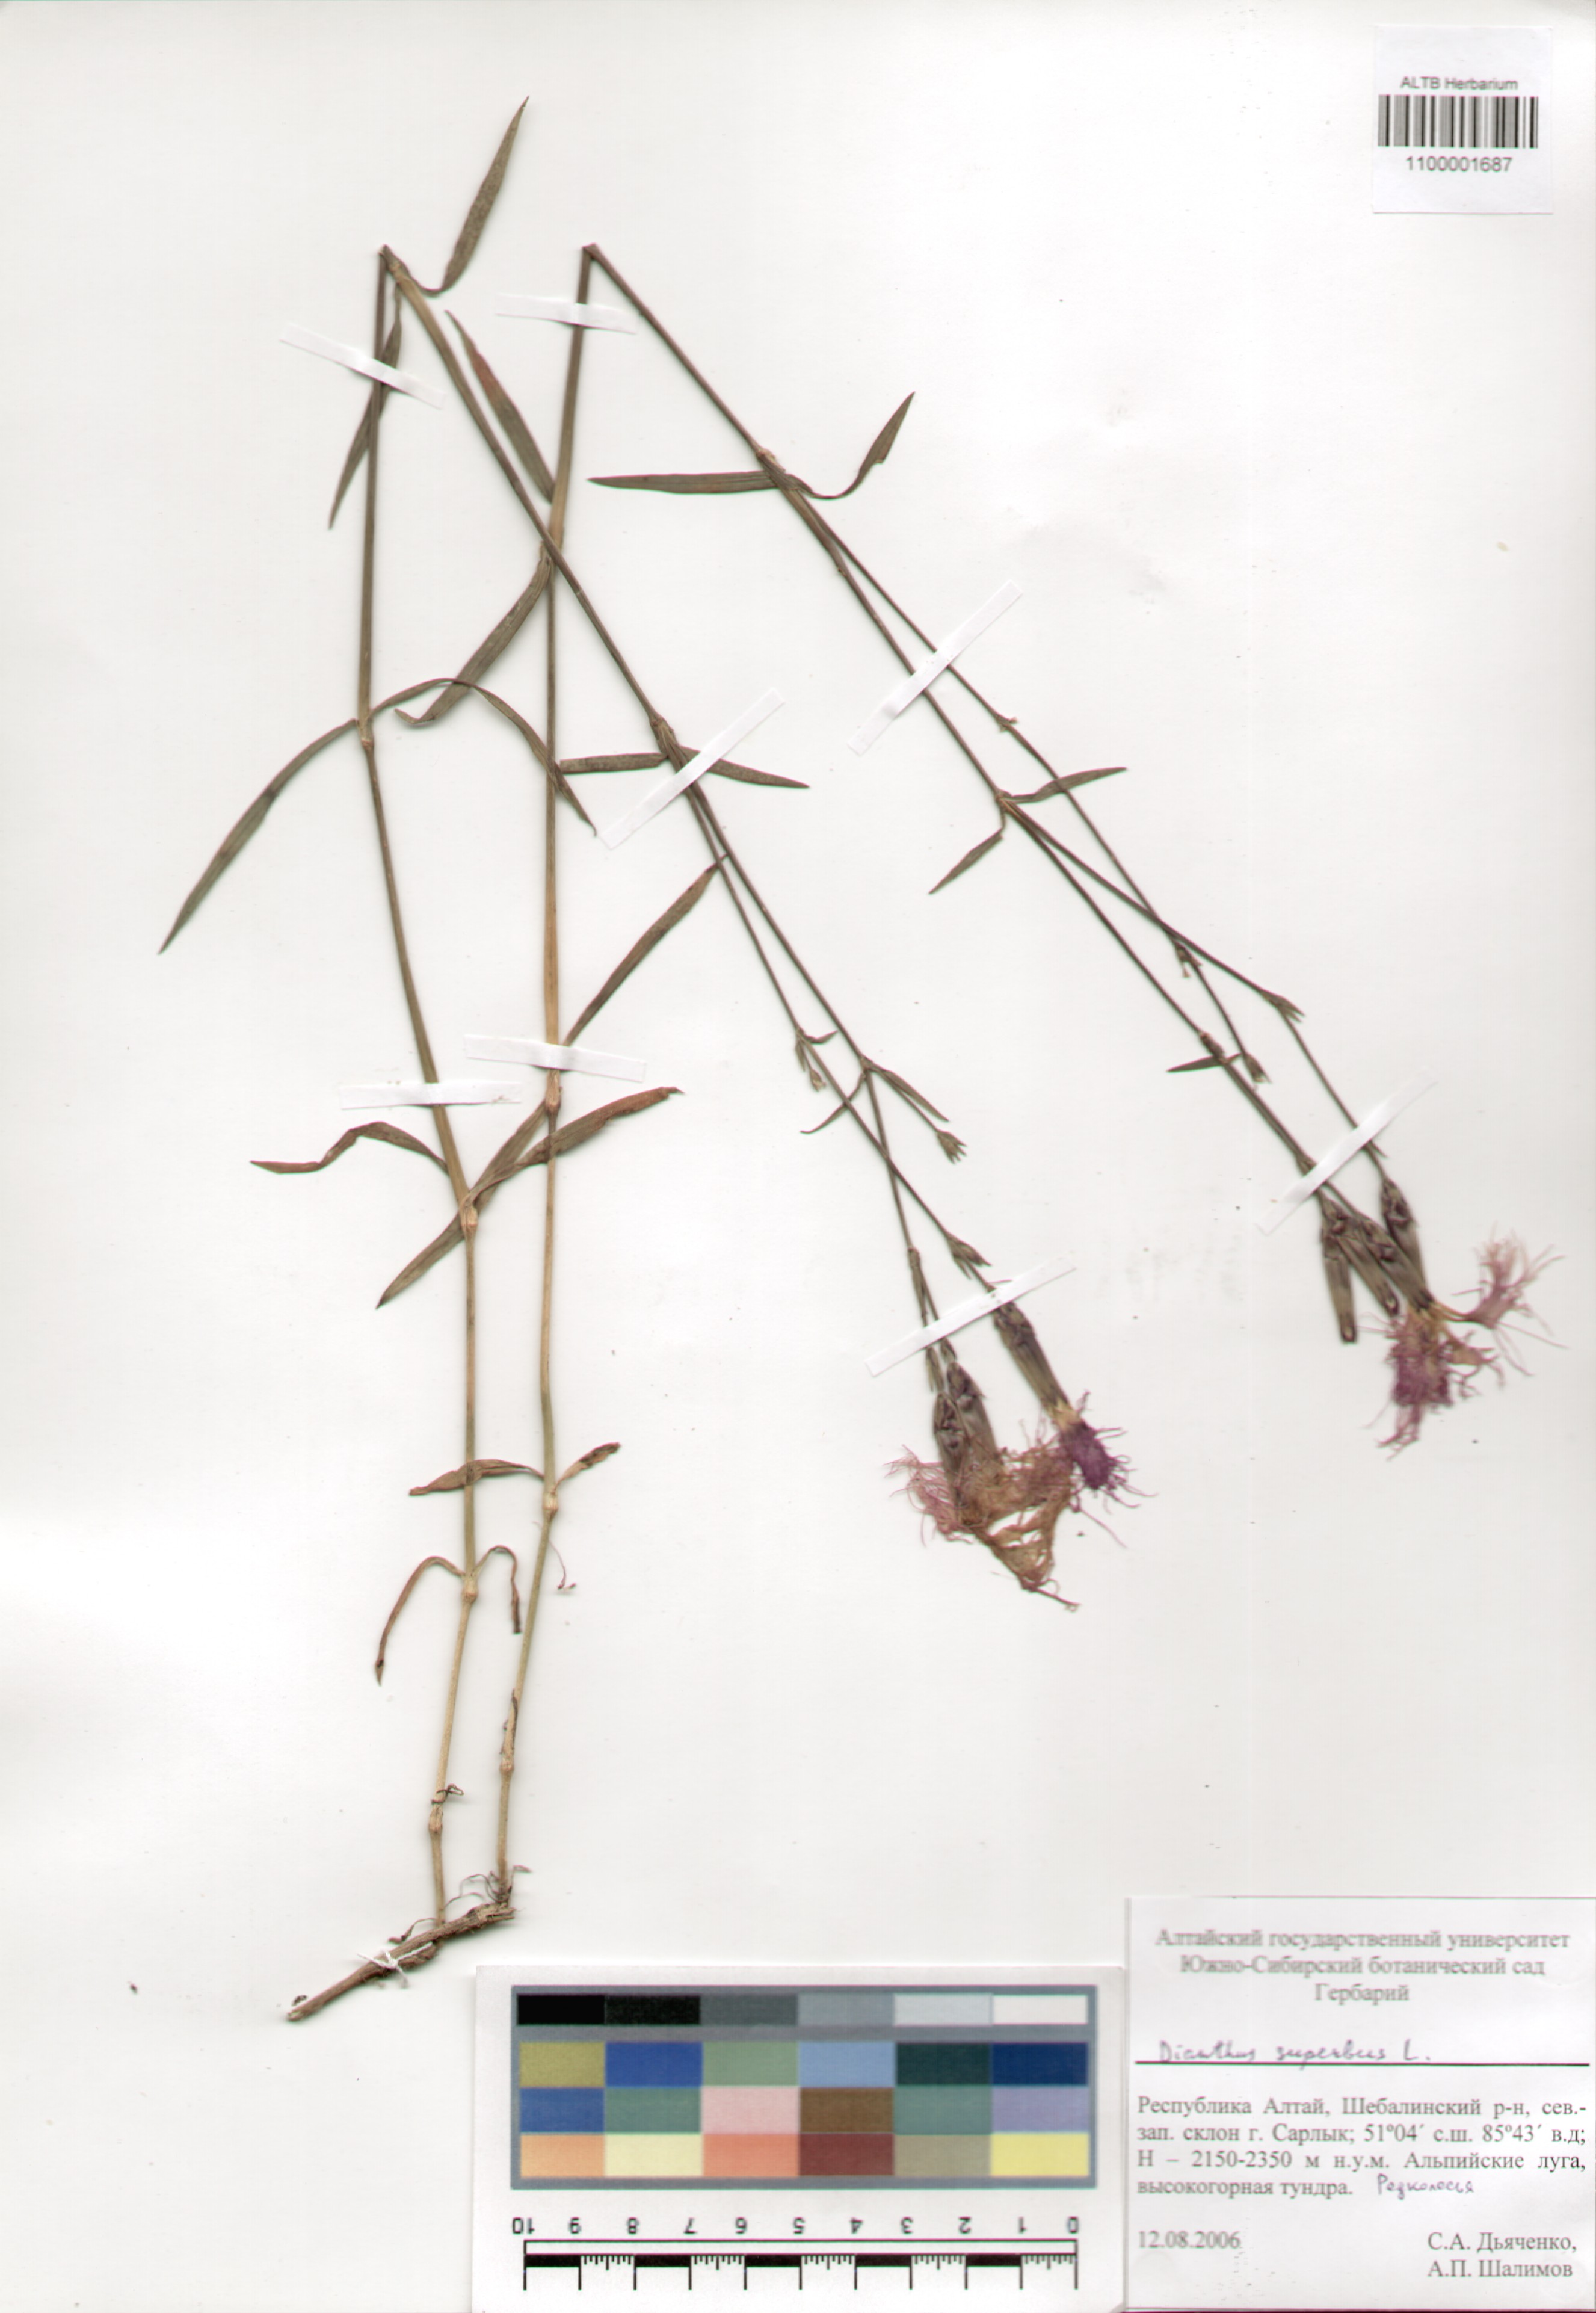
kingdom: Plantae
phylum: Tracheophyta
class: Magnoliopsida
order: Caryophyllales
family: Caryophyllaceae
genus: Dianthus
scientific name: Dianthus superbus
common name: Fringed pink
